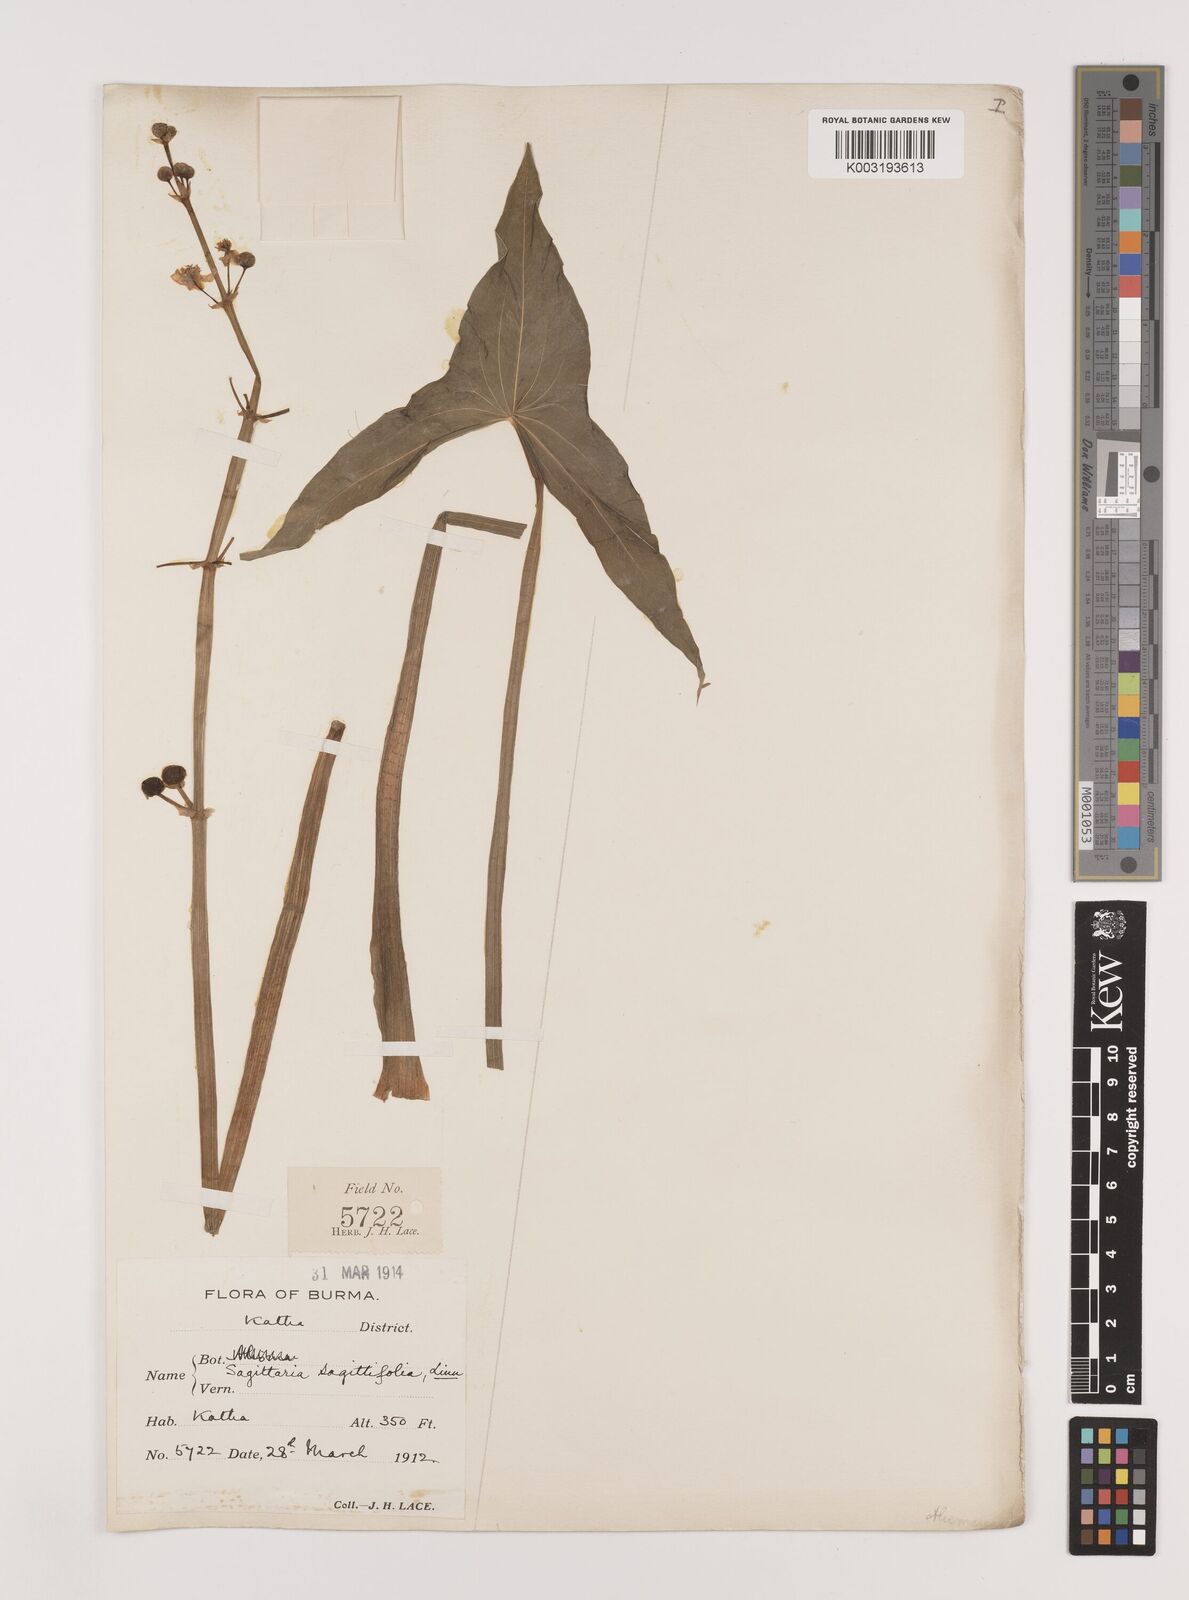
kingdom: Plantae
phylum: Tracheophyta
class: Liliopsida
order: Alismatales
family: Alismataceae
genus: Sagittaria
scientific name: Sagittaria sagittifolia
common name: Arrowhead
